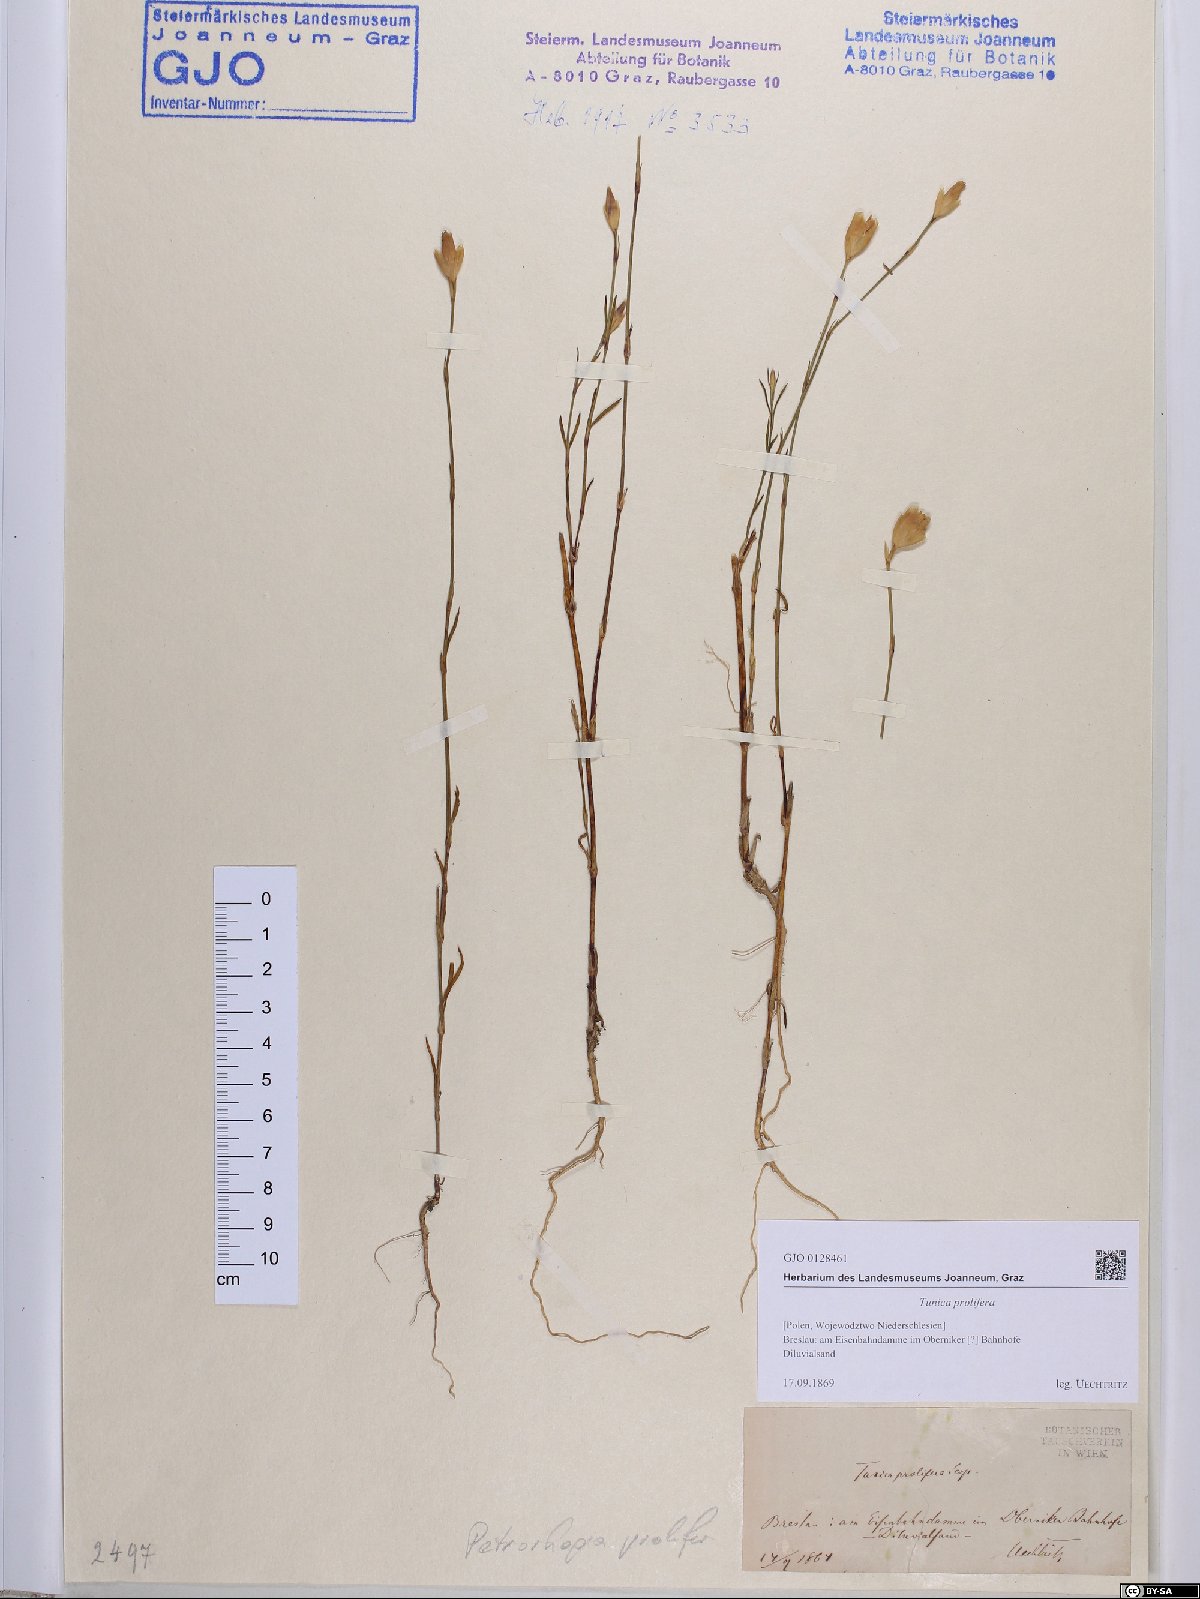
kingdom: Plantae
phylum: Tracheophyta
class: Magnoliopsida
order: Caryophyllales
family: Caryophyllaceae
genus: Petrorhagia
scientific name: Petrorhagia prolifera
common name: Proliferous pink
